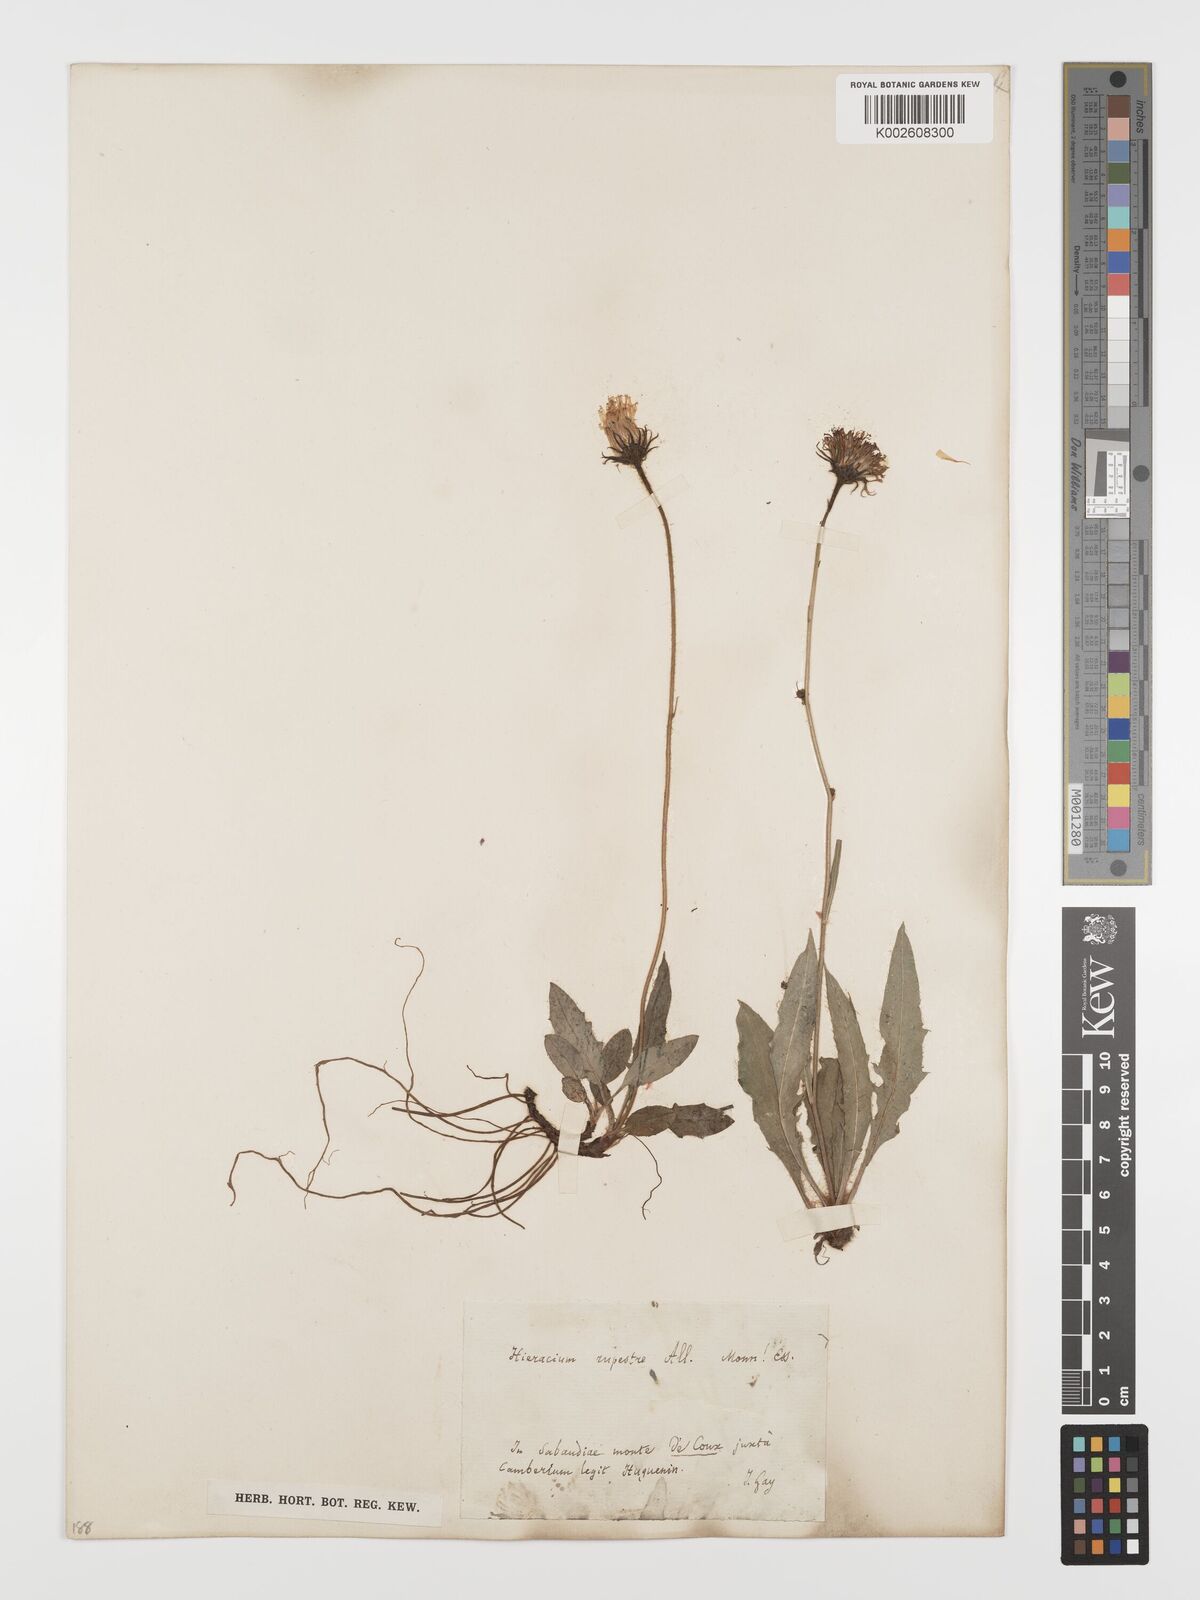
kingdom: Plantae
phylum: Tracheophyta
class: Magnoliopsida
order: Asterales
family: Asteraceae
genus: Hieracium
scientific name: Hieracium rupestre
